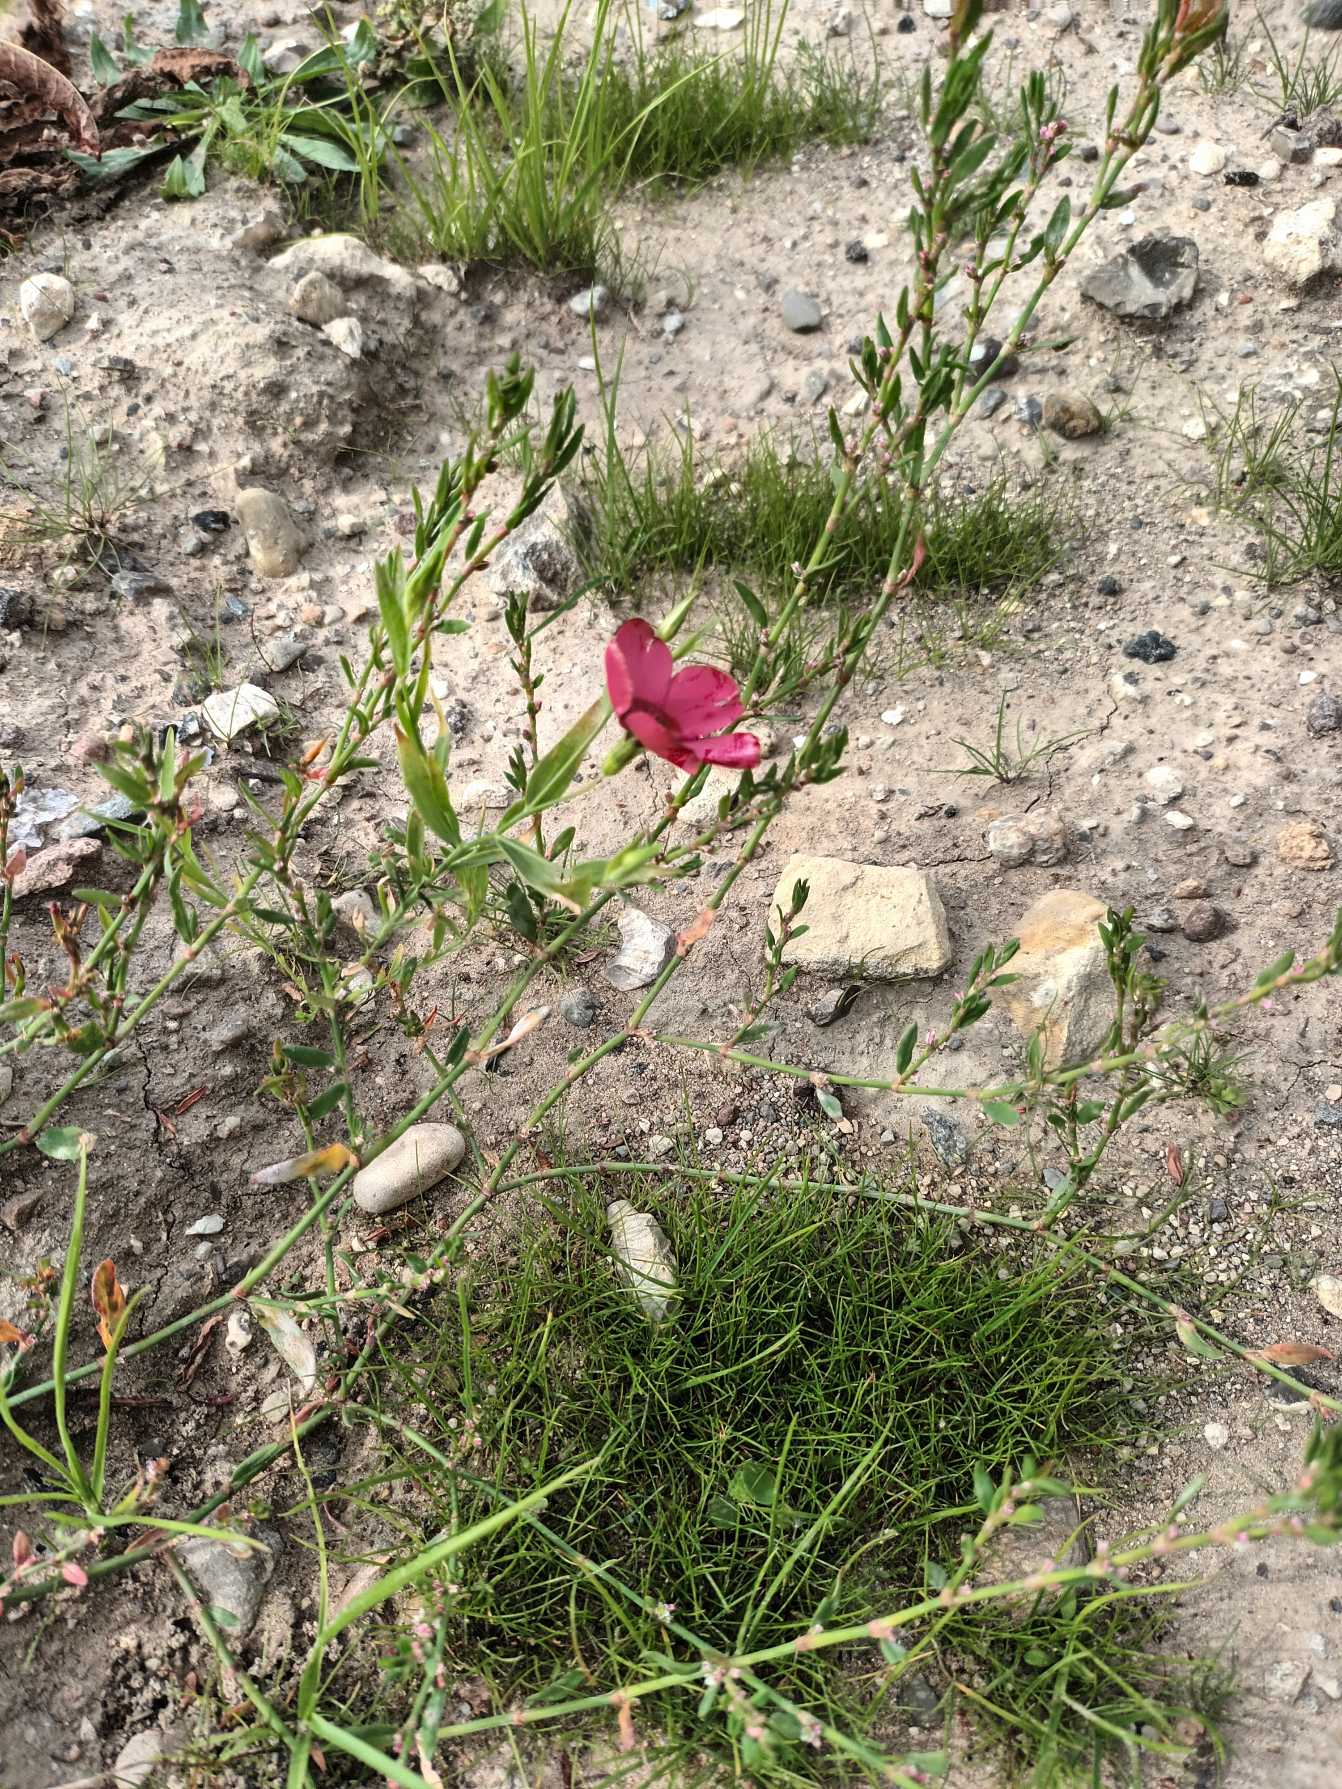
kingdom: Plantae
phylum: Tracheophyta
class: Magnoliopsida
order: Malpighiales
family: Linaceae
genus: Linum
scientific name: Linum grandiflorum
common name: Rød hør
